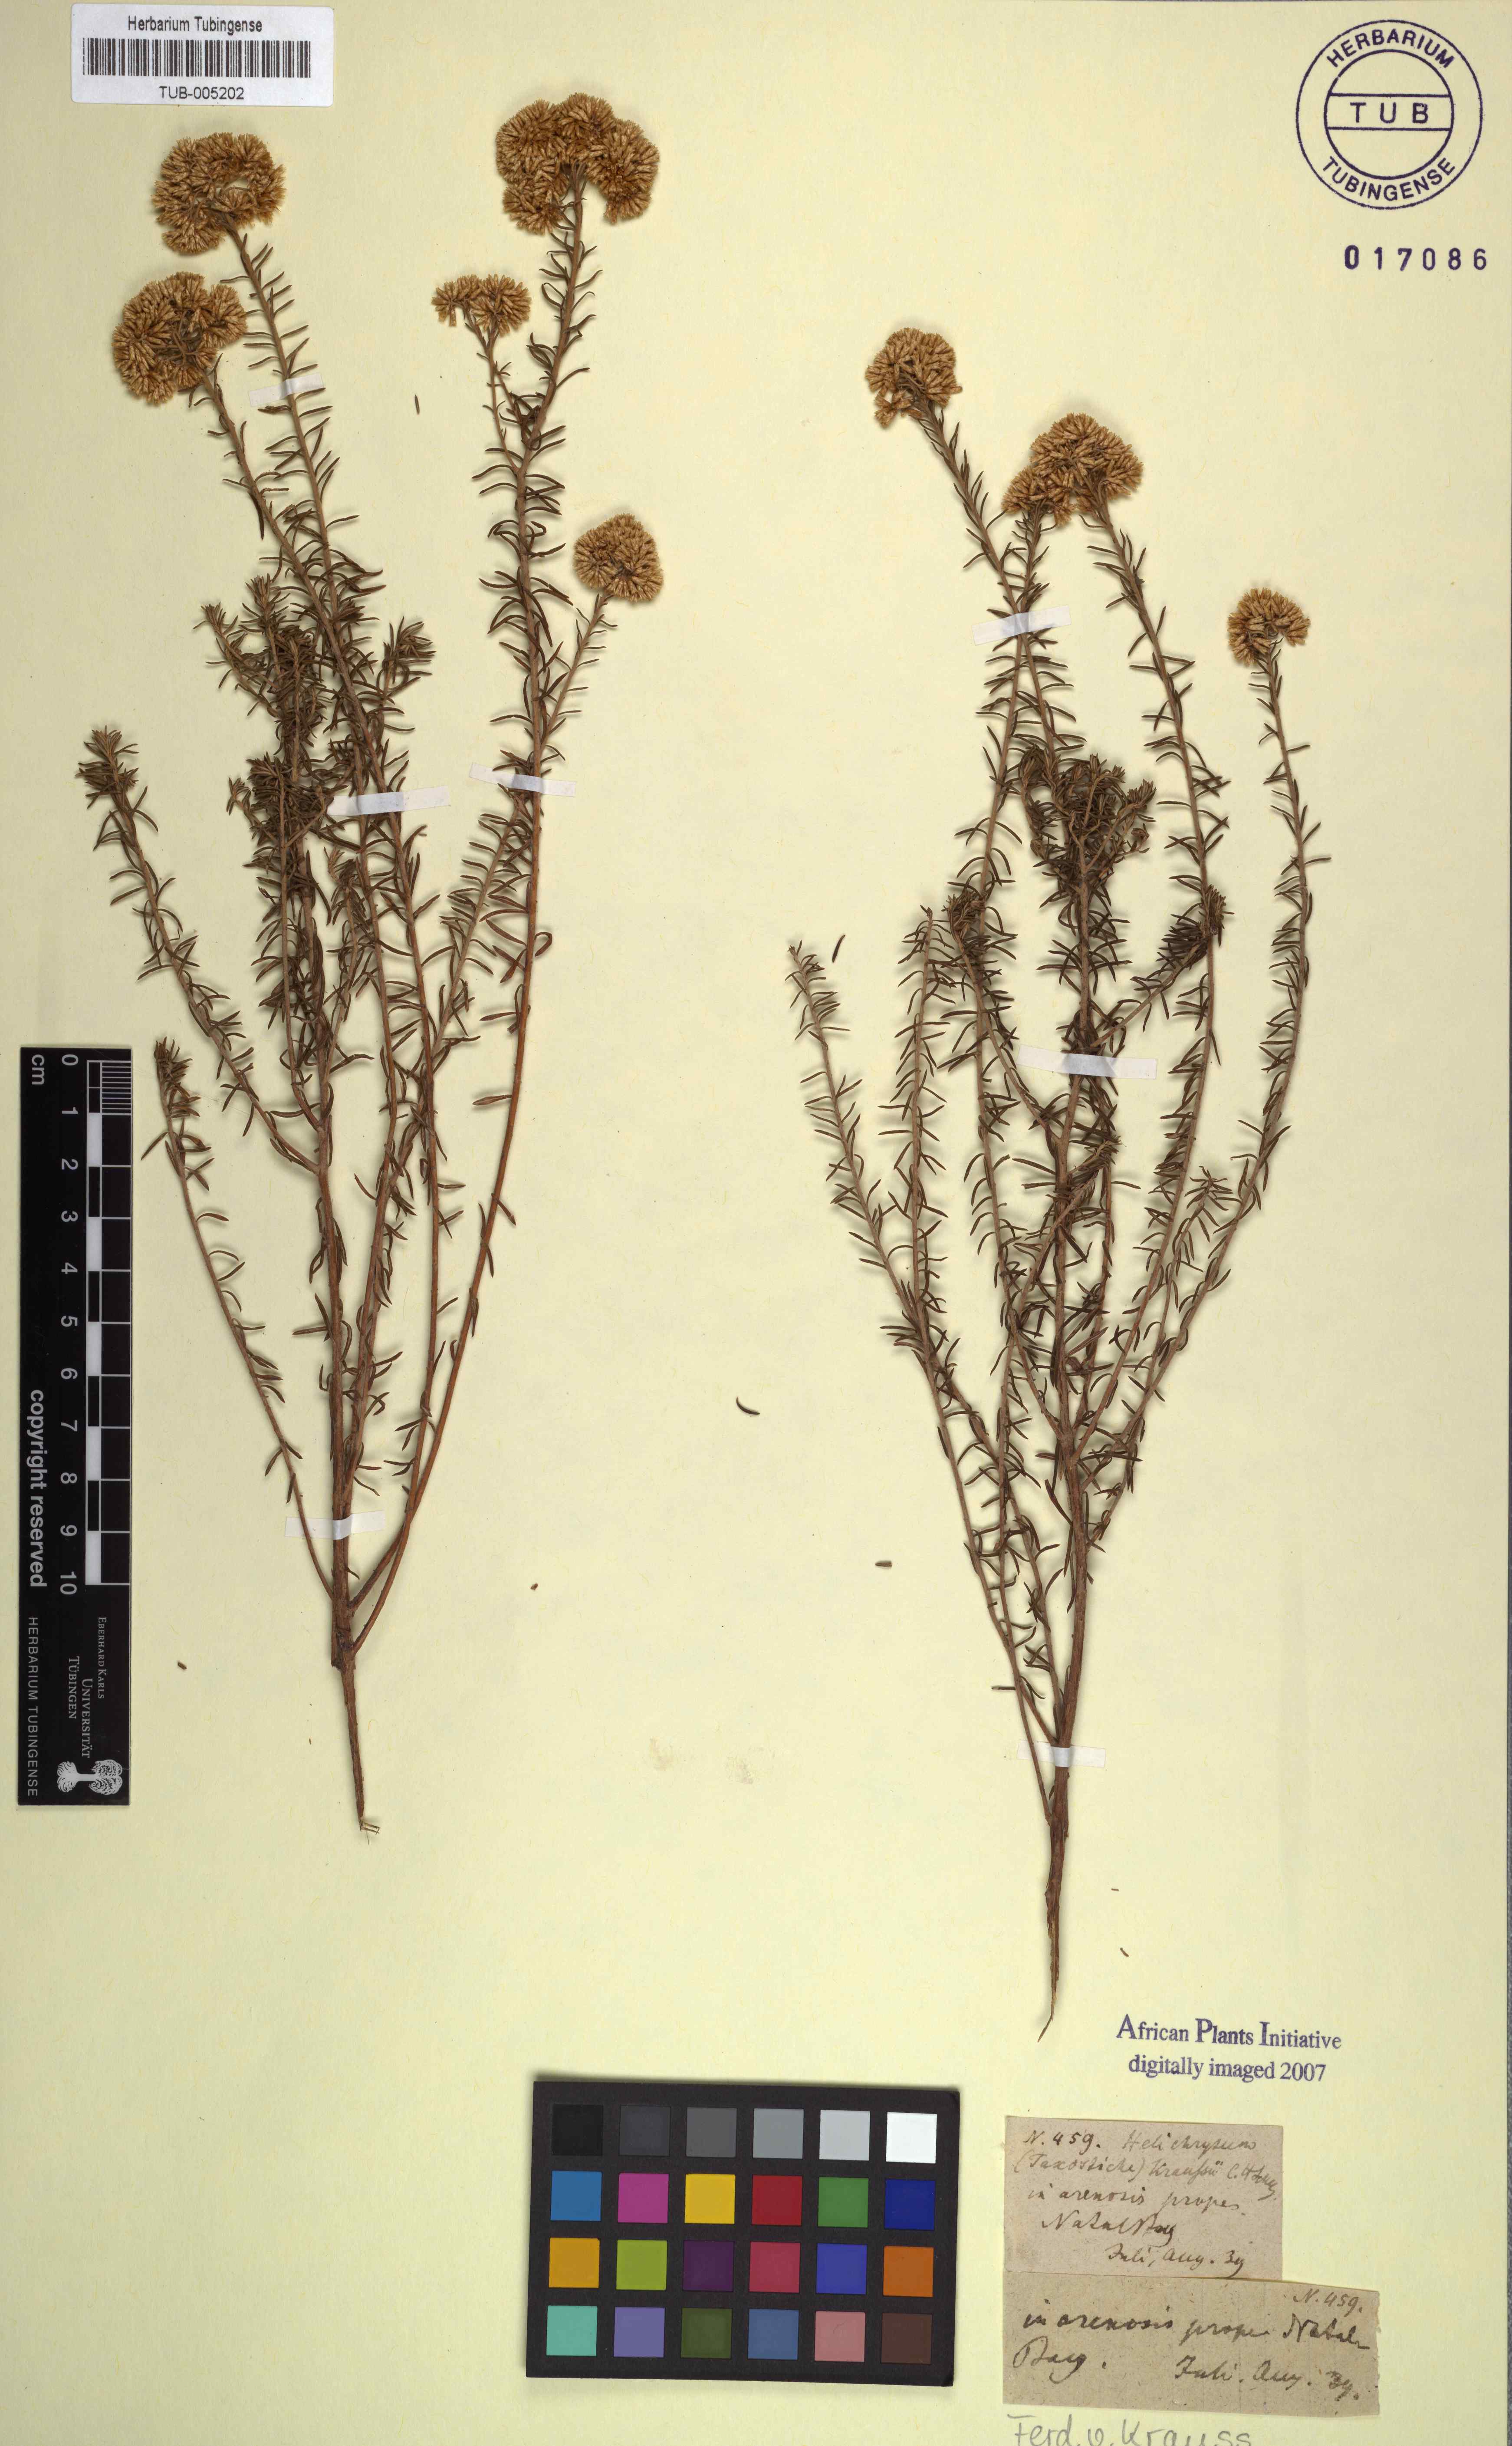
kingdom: Plantae
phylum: Tracheophyta
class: Magnoliopsida
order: Asterales
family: Asteraceae
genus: Helichrysum
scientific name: Helichrysum kraussii
